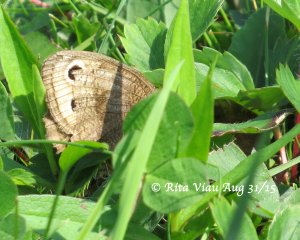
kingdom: Animalia
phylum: Arthropoda
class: Insecta
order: Lepidoptera
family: Nymphalidae
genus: Cercyonis
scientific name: Cercyonis pegala
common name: Common Wood-Nymph
